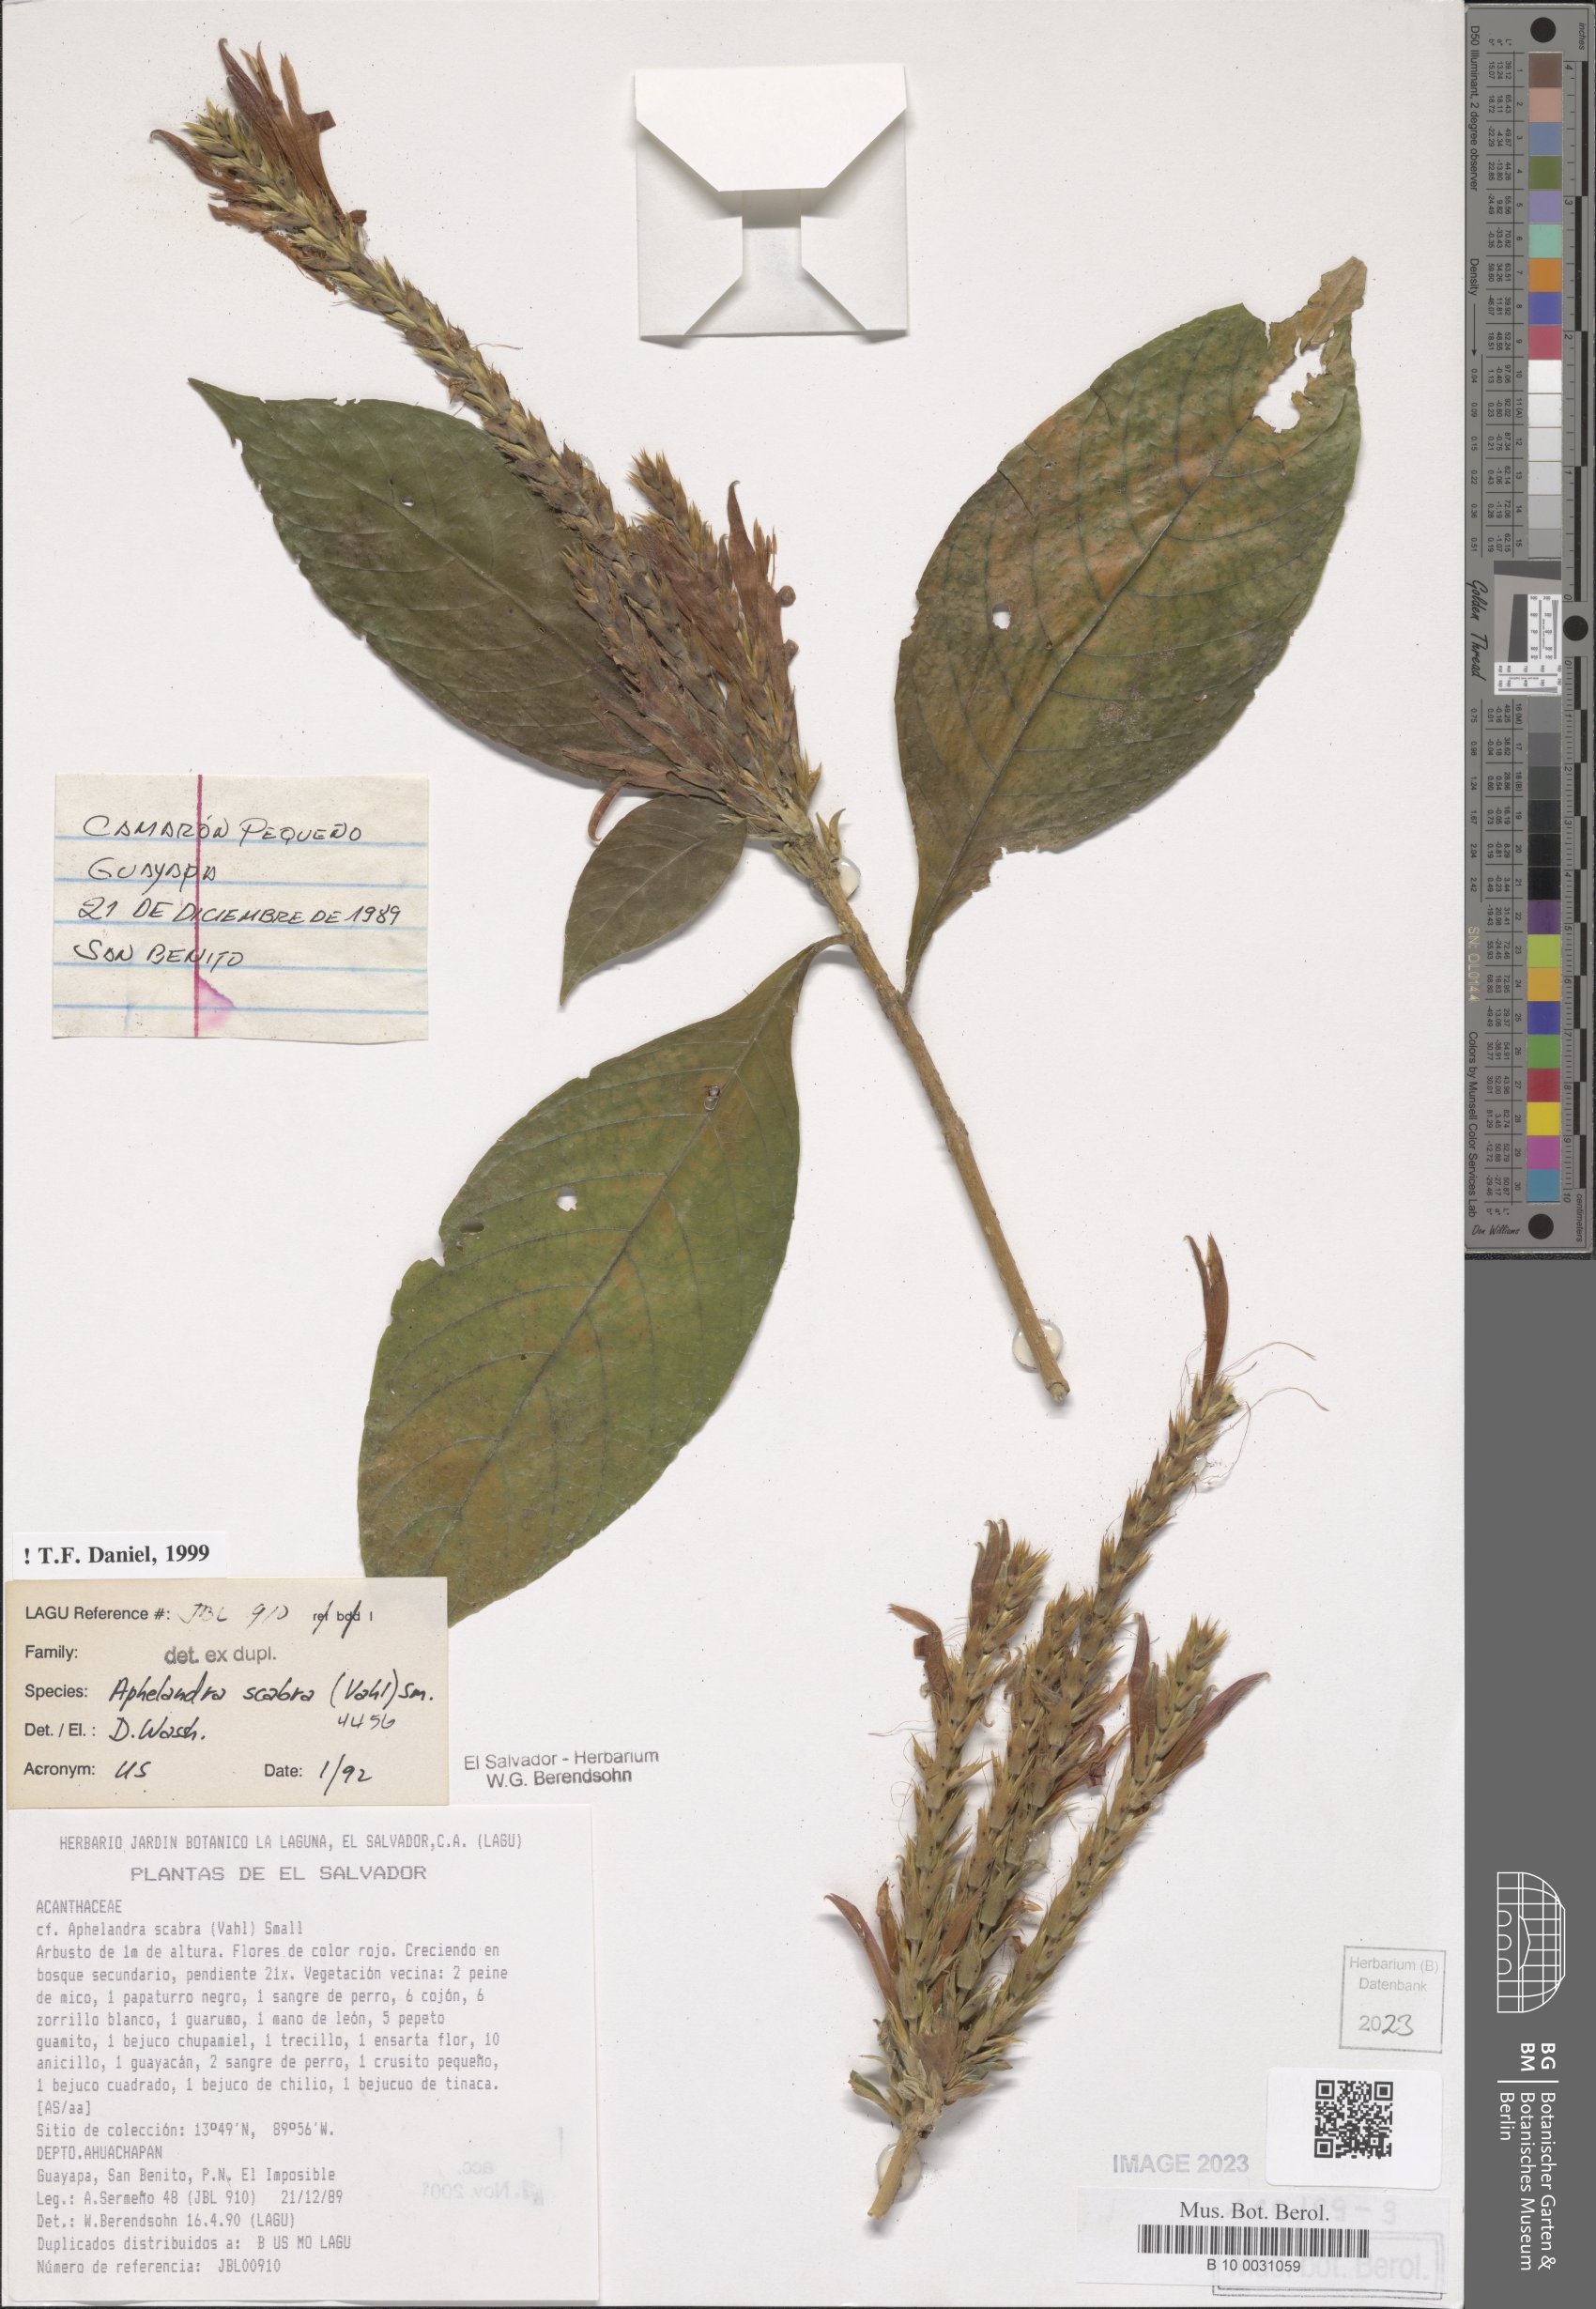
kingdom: Plantae
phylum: Tracheophyta
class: Magnoliopsida
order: Lamiales
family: Acanthaceae
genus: Aphelandra
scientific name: Aphelandra scabra
